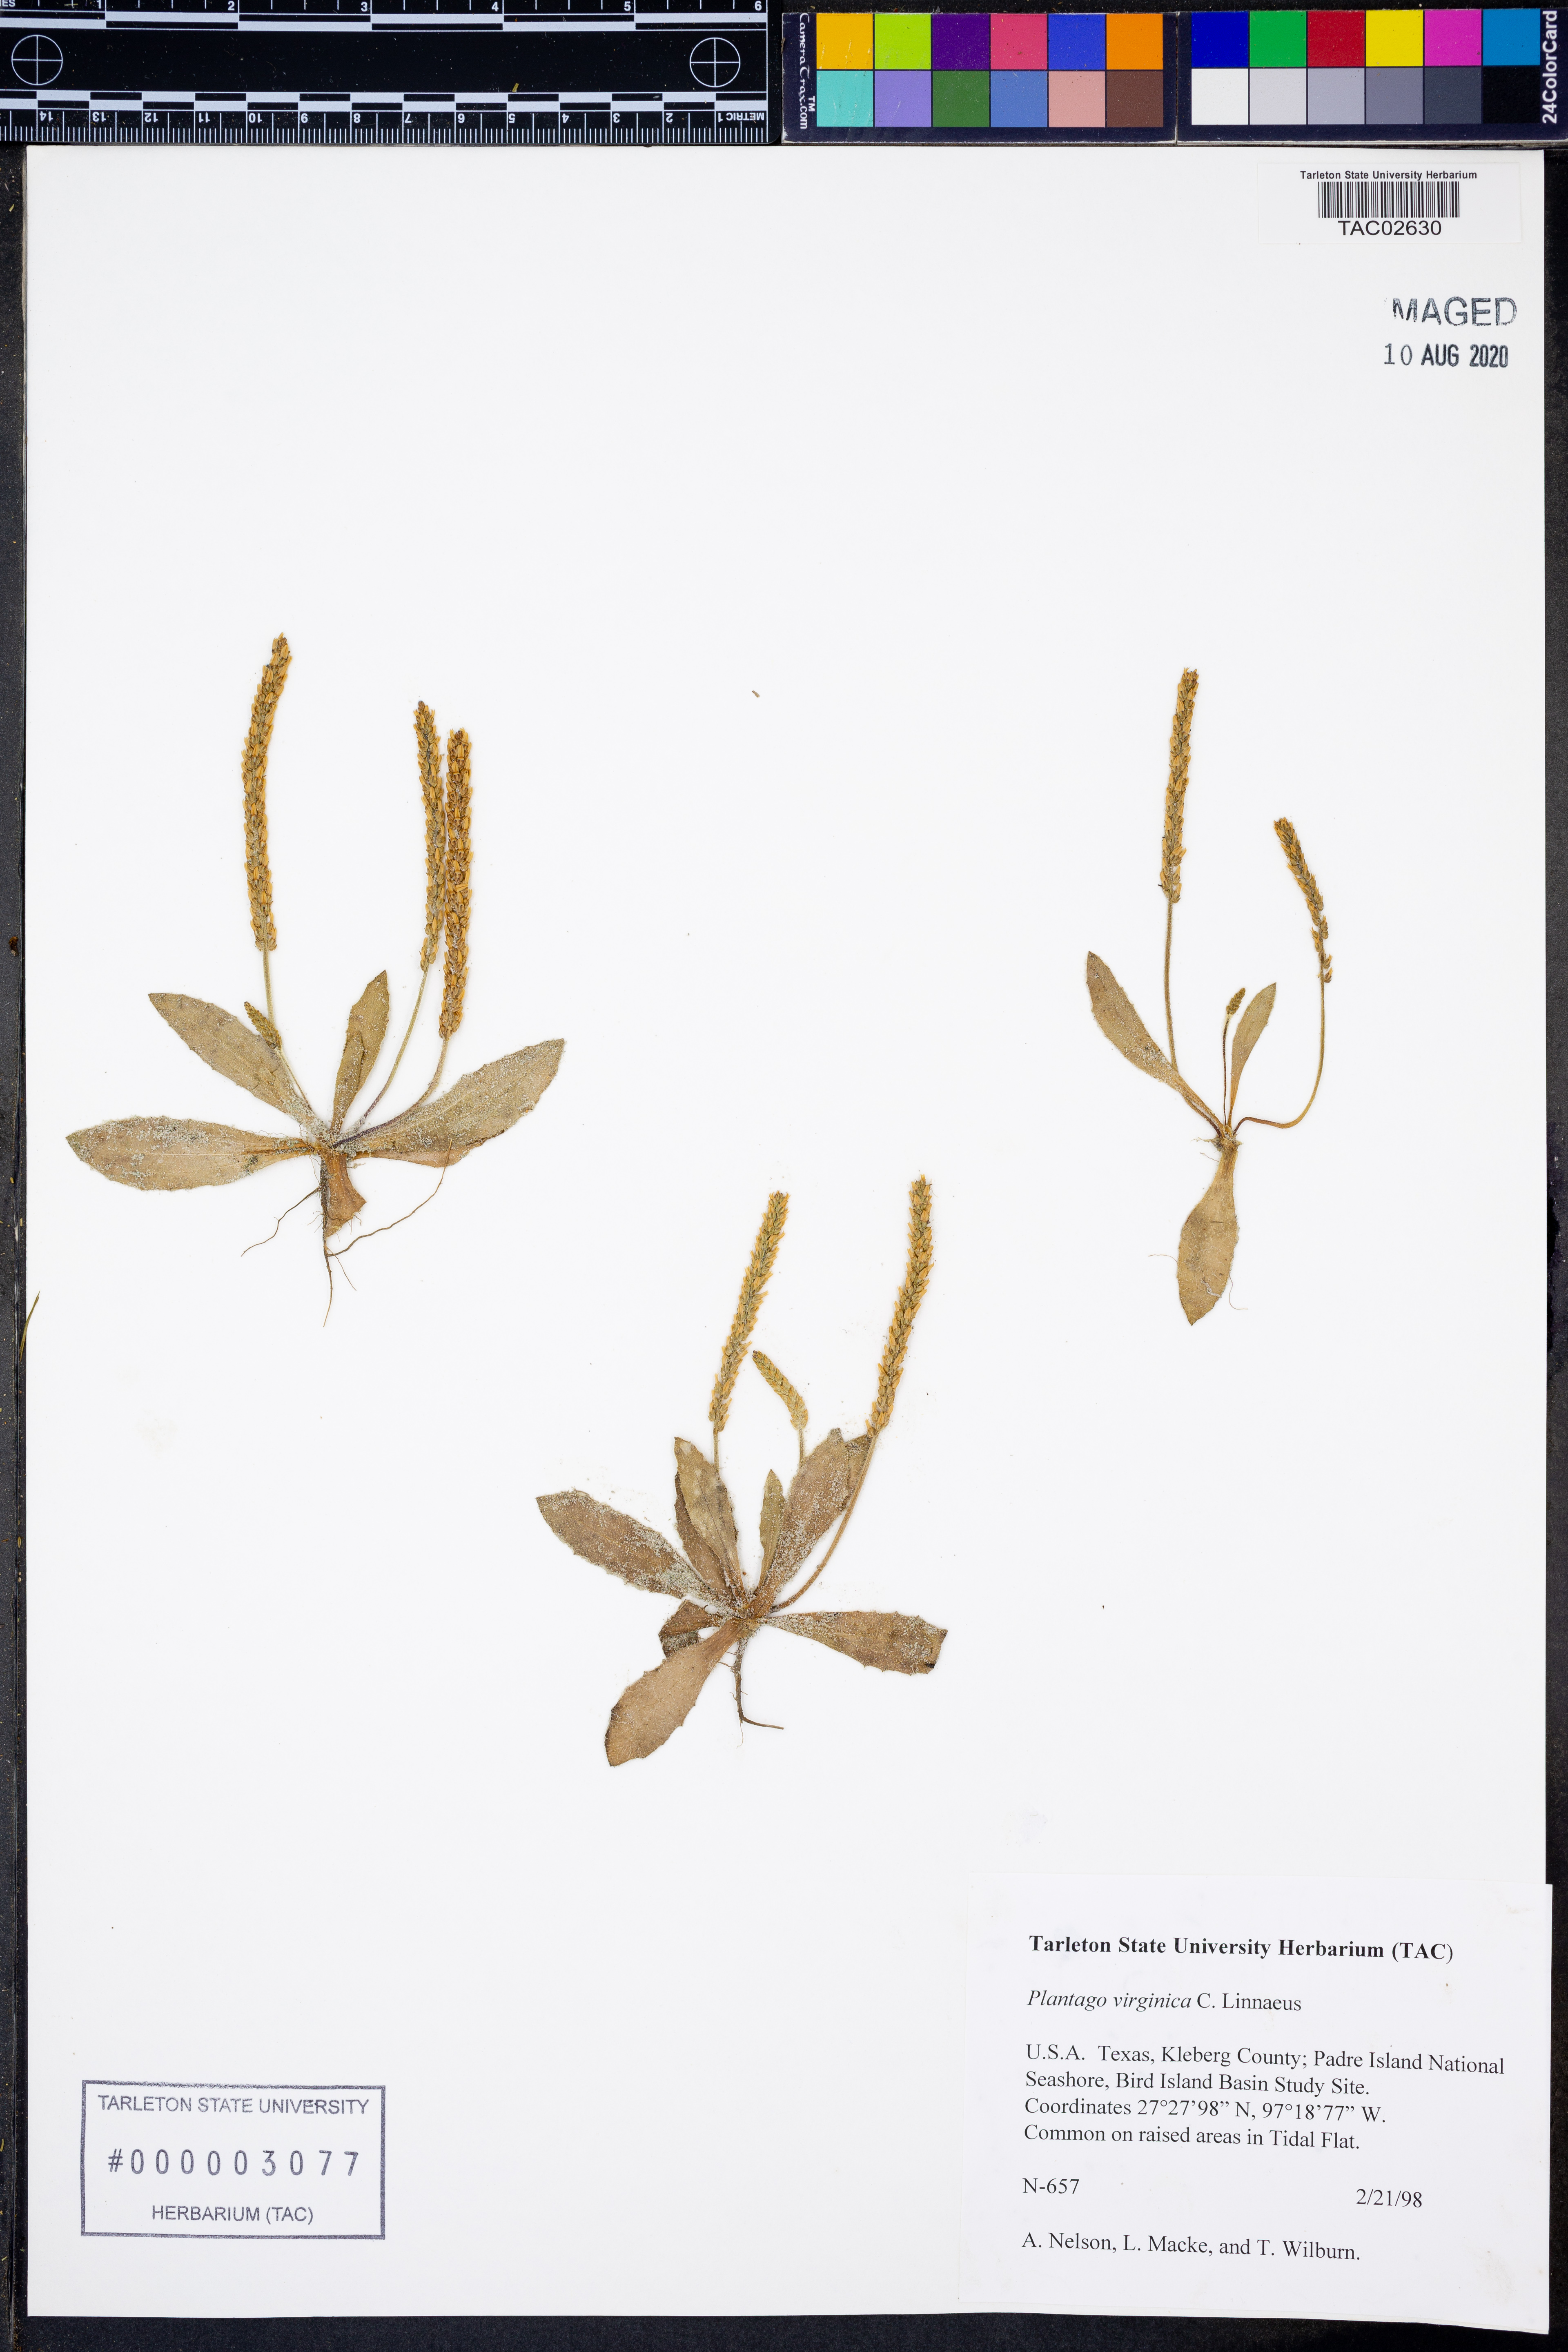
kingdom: Plantae
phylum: Tracheophyta
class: Magnoliopsida
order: Lamiales
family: Plantaginaceae
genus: Plantago
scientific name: Plantago virginica
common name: Hoary plantain
